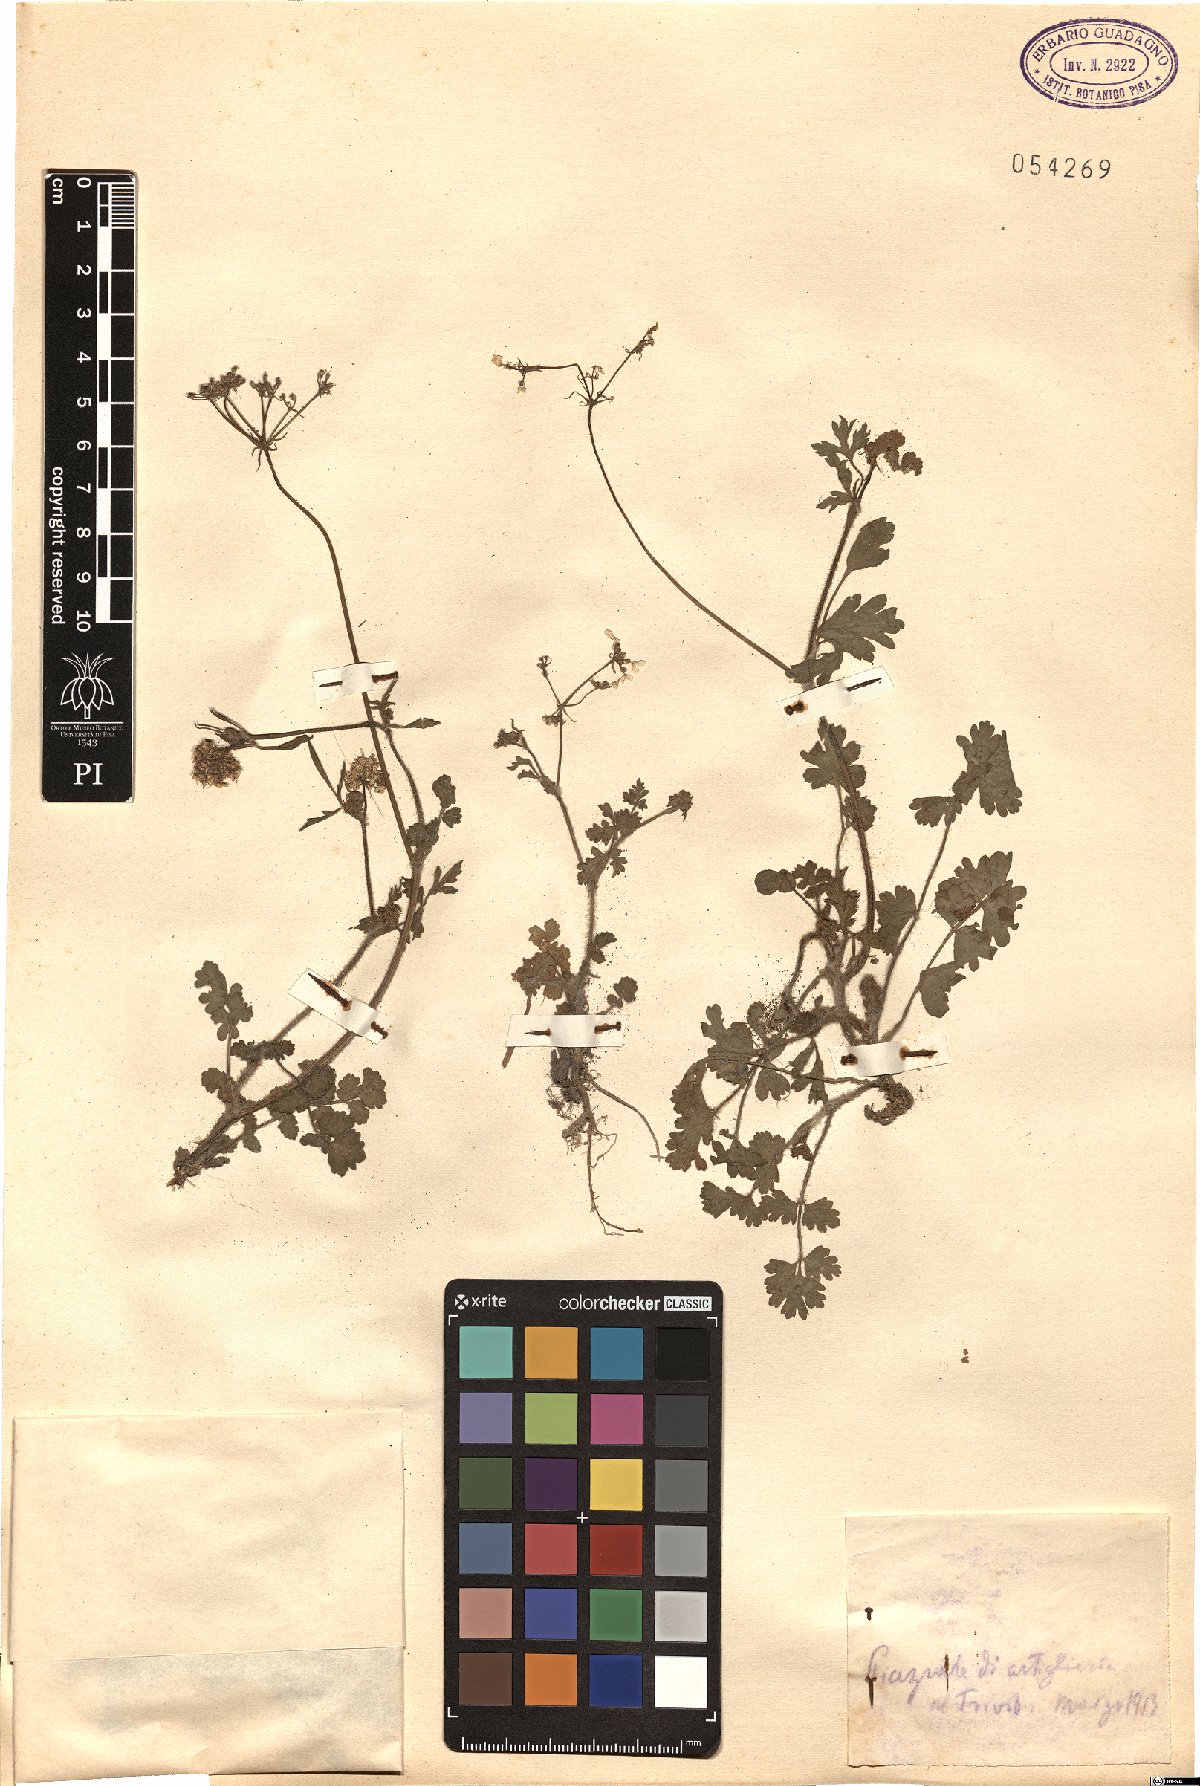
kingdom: Plantae
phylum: Tracheophyta
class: Magnoliopsida
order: Apiales
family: Apiaceae
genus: Tordylium
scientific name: Tordylium
